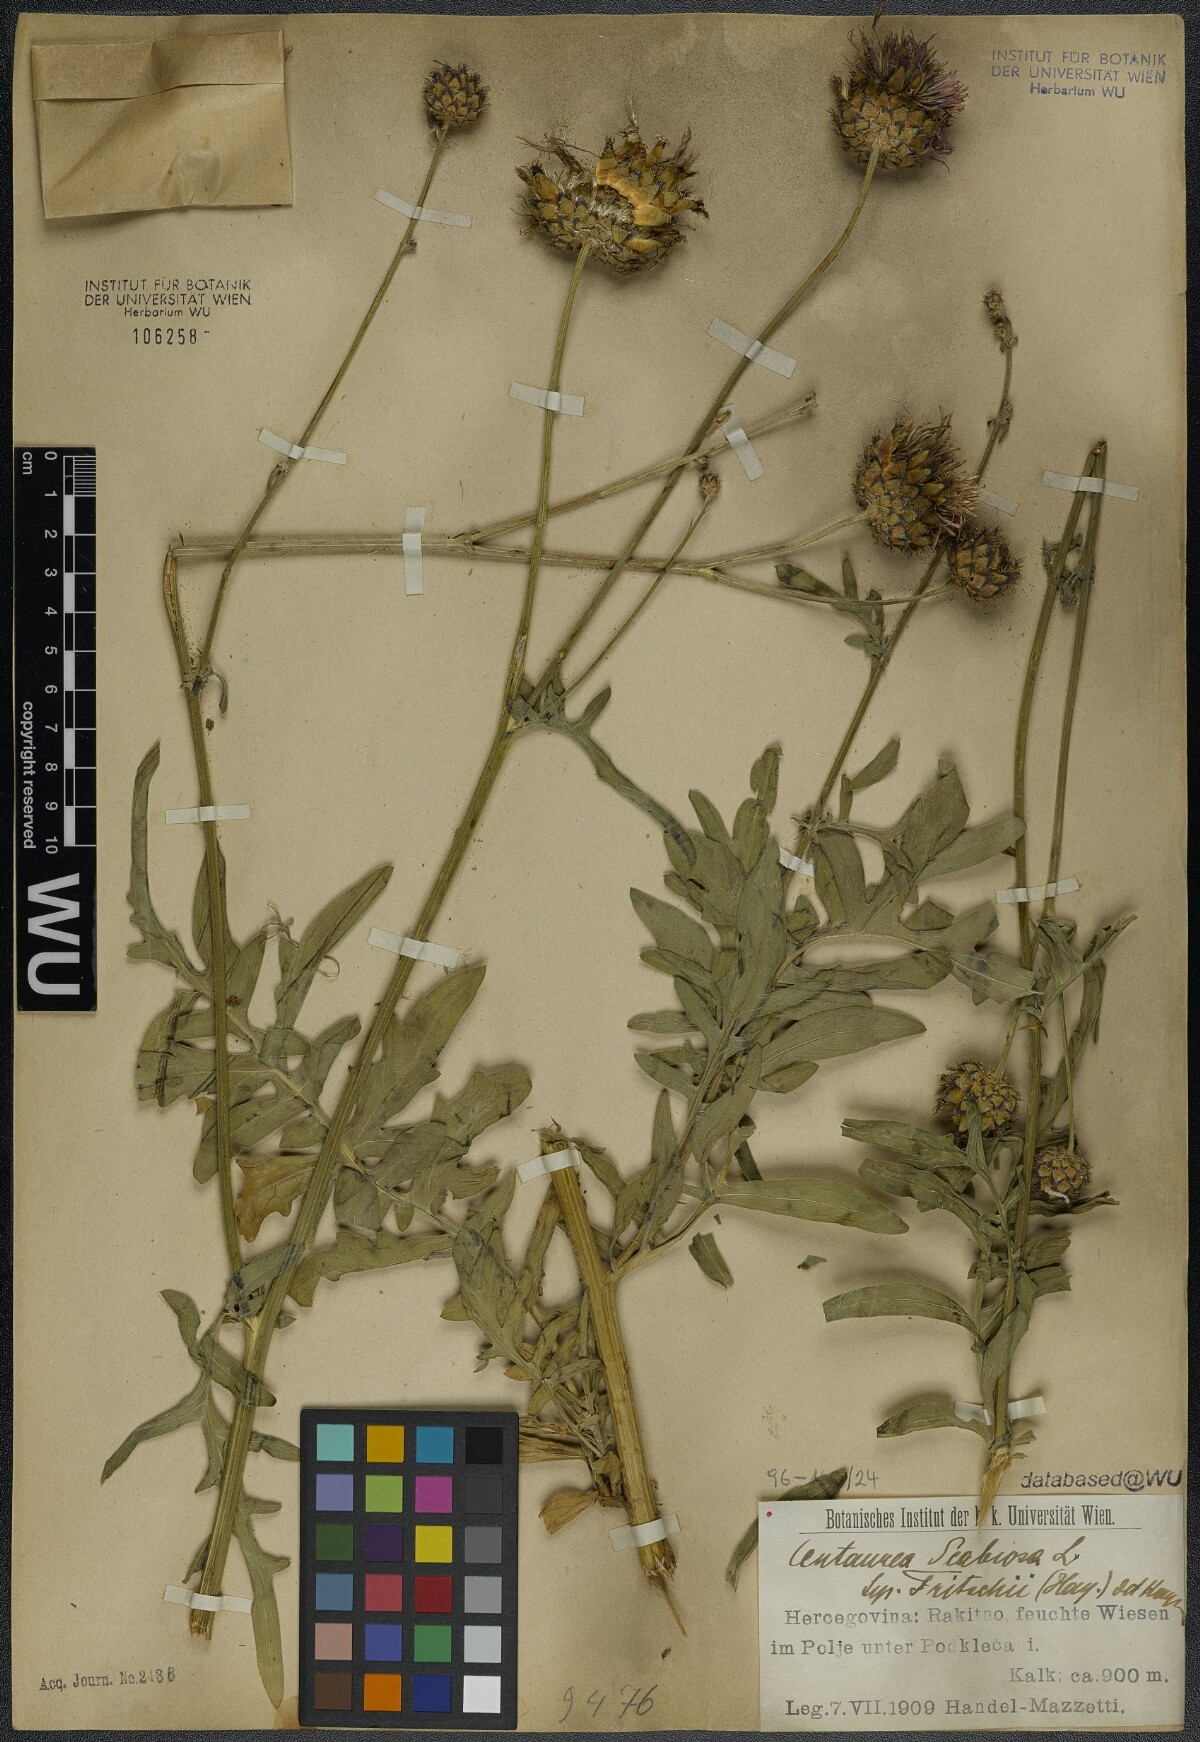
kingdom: Plantae
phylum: Tracheophyta
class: Magnoliopsida
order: Asterales
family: Asteraceae
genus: Centaurea
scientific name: Centaurea scabiosa
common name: Greater knapweed
